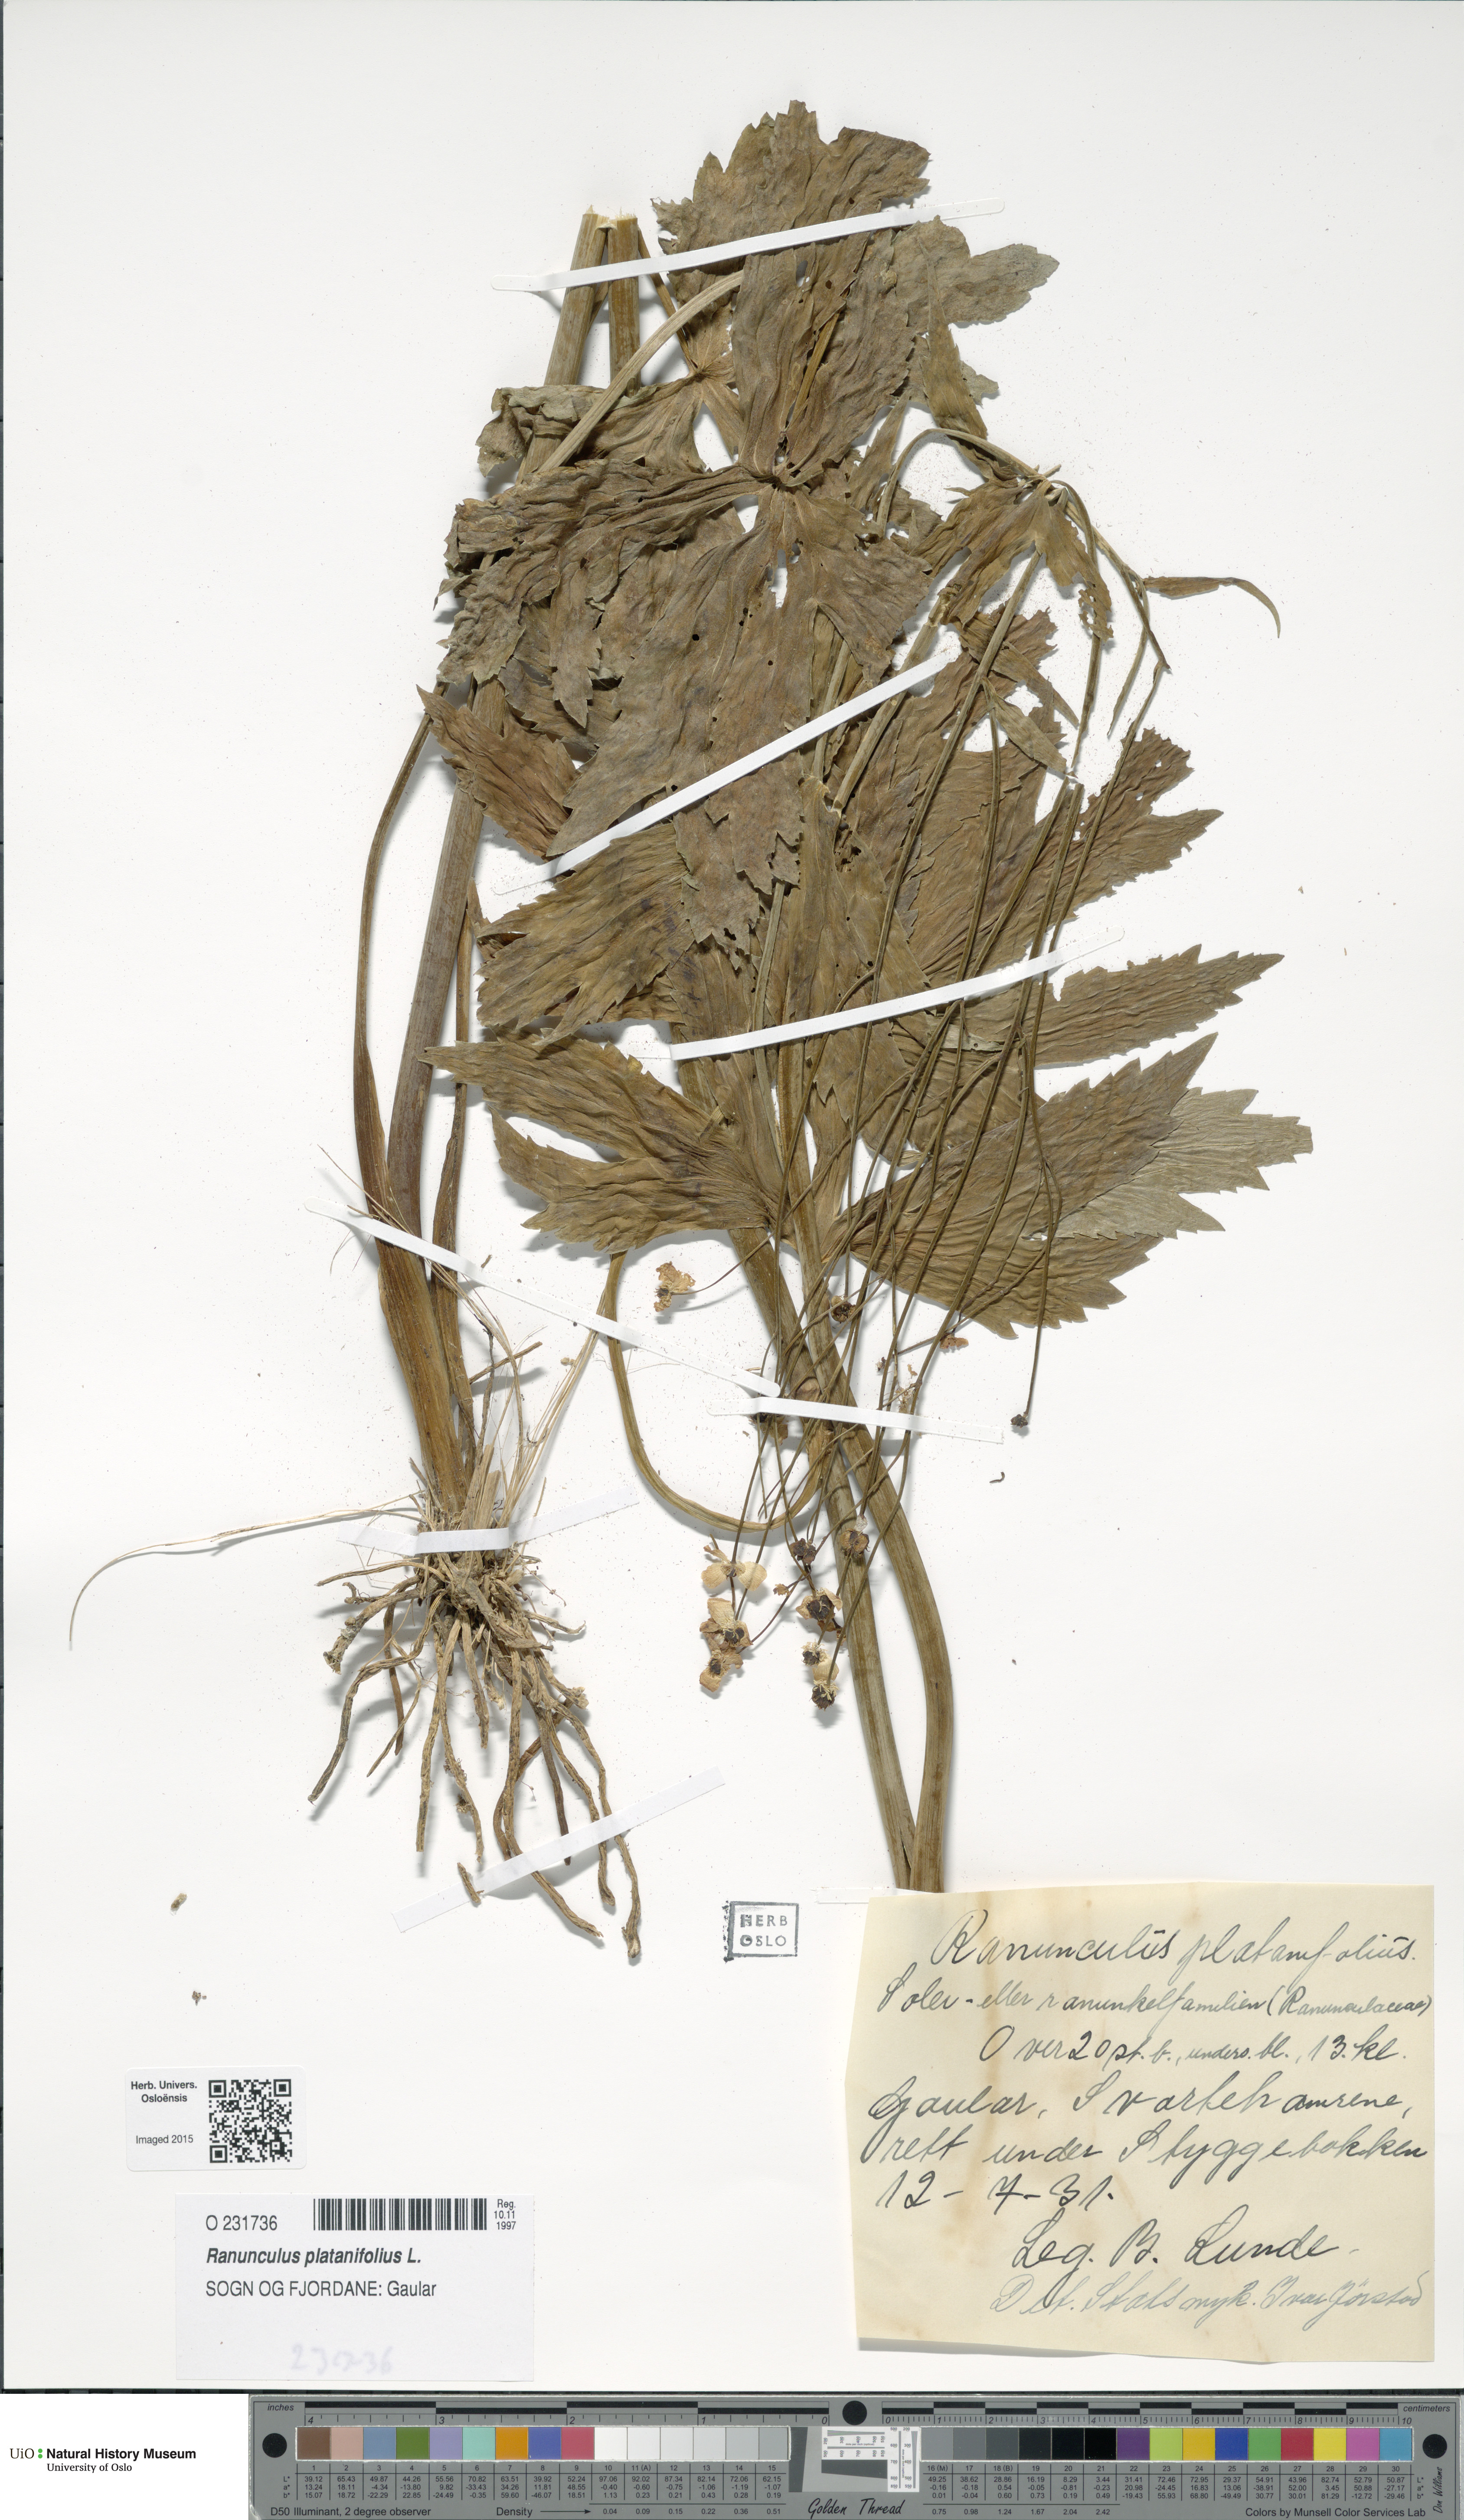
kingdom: Plantae
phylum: Tracheophyta
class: Magnoliopsida
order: Ranunculales
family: Ranunculaceae
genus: Ranunculus
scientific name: Ranunculus platanifolius
